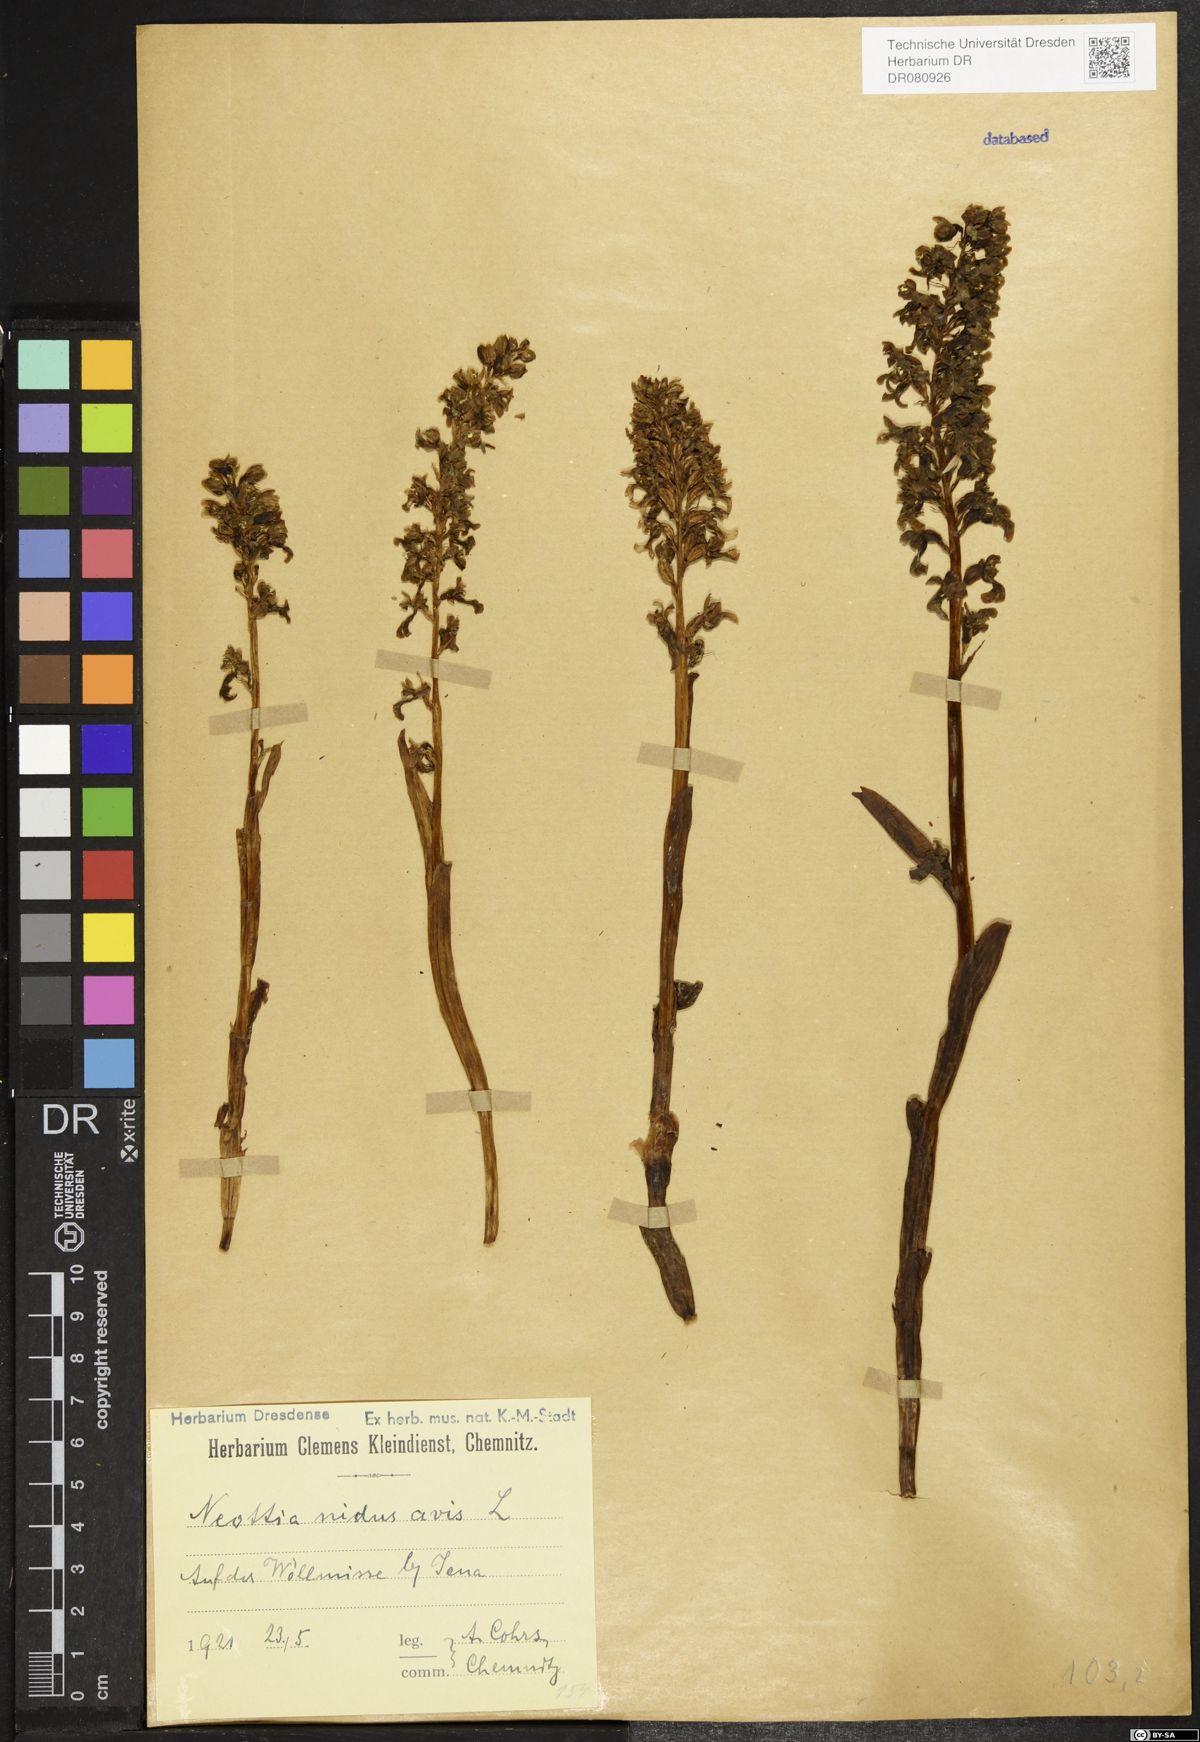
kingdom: Plantae
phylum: Tracheophyta
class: Liliopsida
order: Asparagales
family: Orchidaceae
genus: Neottia
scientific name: Neottia nidus-avis
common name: Bird's-nest orchid
